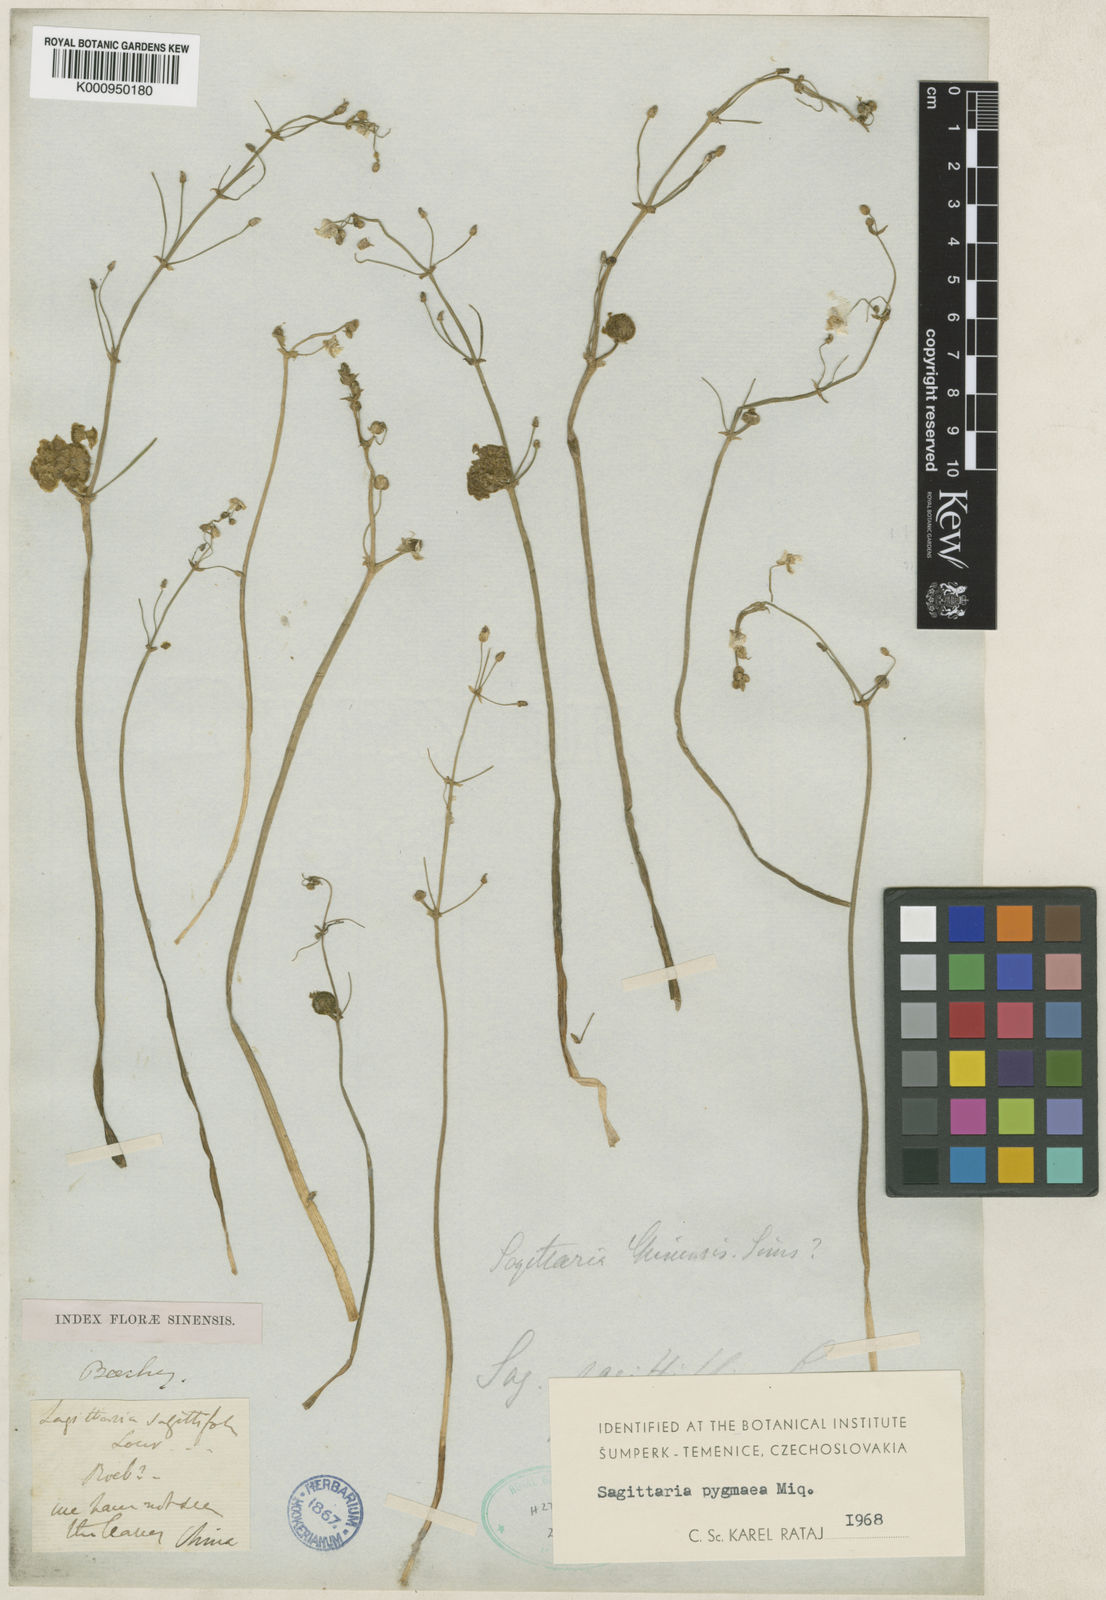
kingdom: Plantae
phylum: Tracheophyta
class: Liliopsida
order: Alismatales
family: Alismataceae
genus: Sagittaria
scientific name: Sagittaria pygmaea
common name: Pygmy arrowhead
